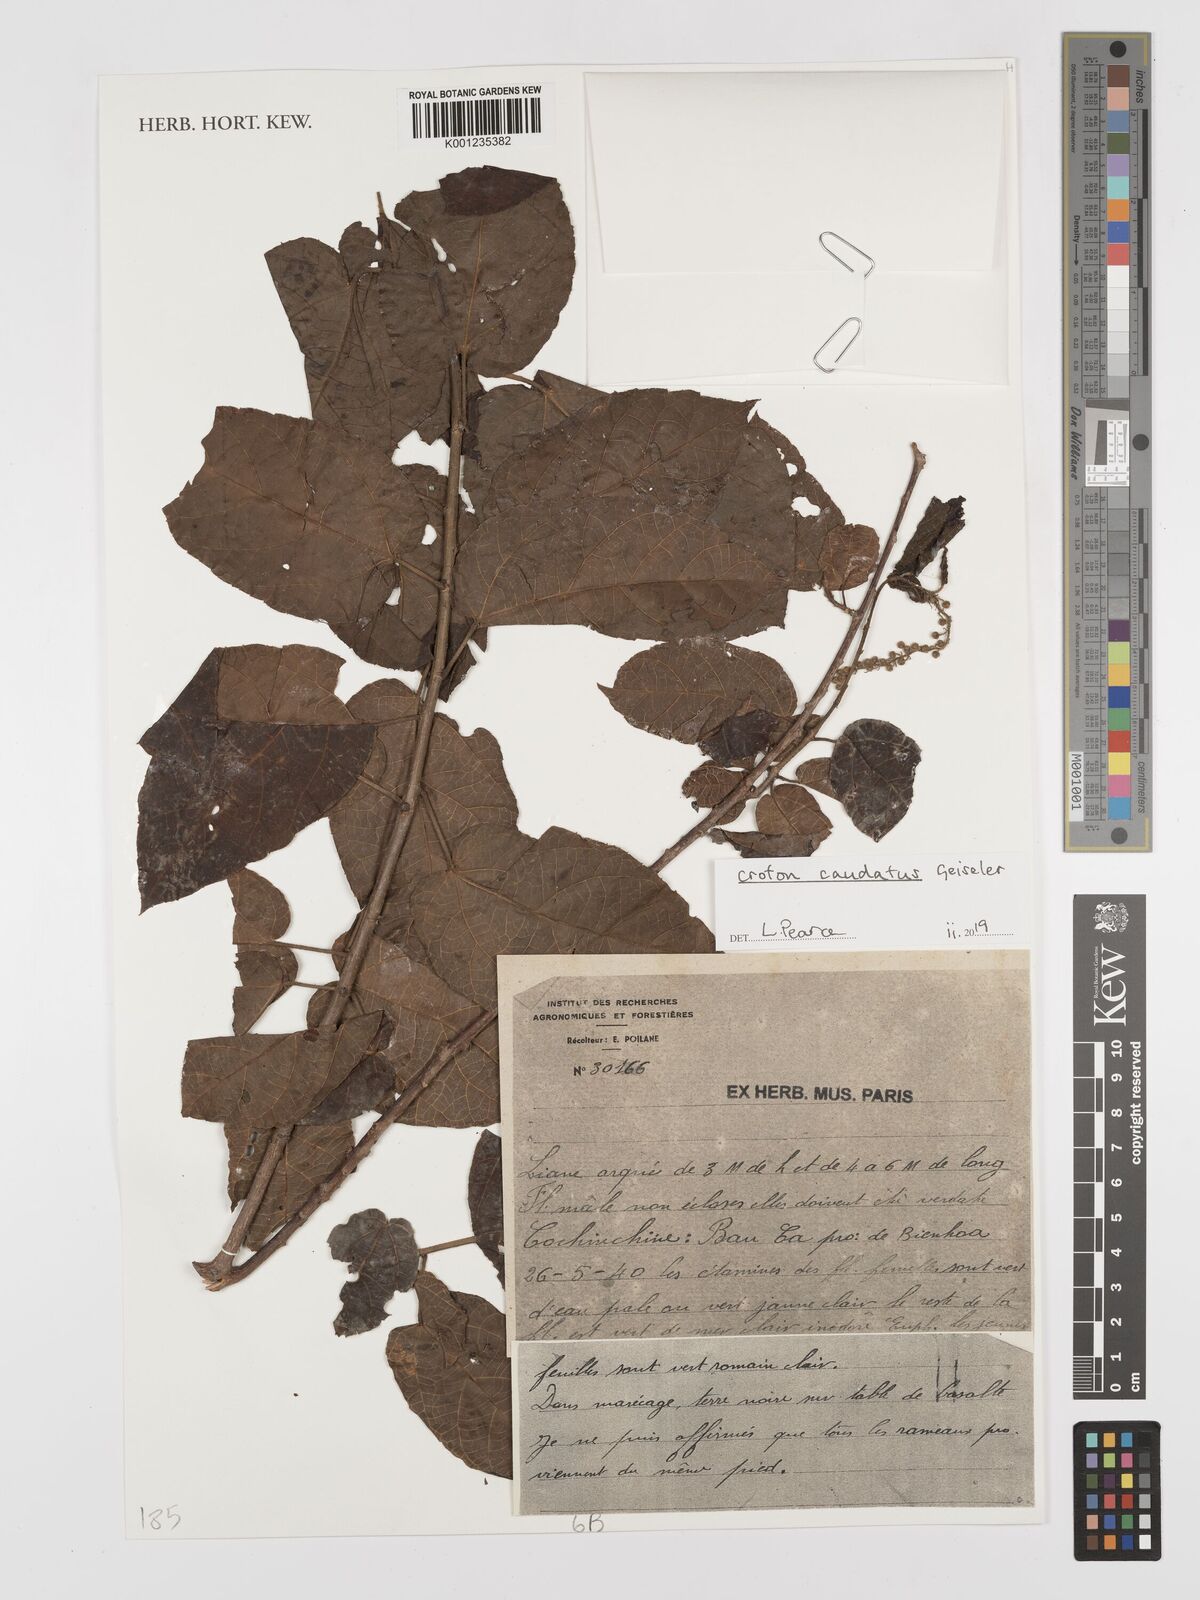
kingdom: Plantae
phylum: Tracheophyta
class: Magnoliopsida
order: Malpighiales
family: Euphorbiaceae
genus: Croton
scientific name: Croton caudatus
